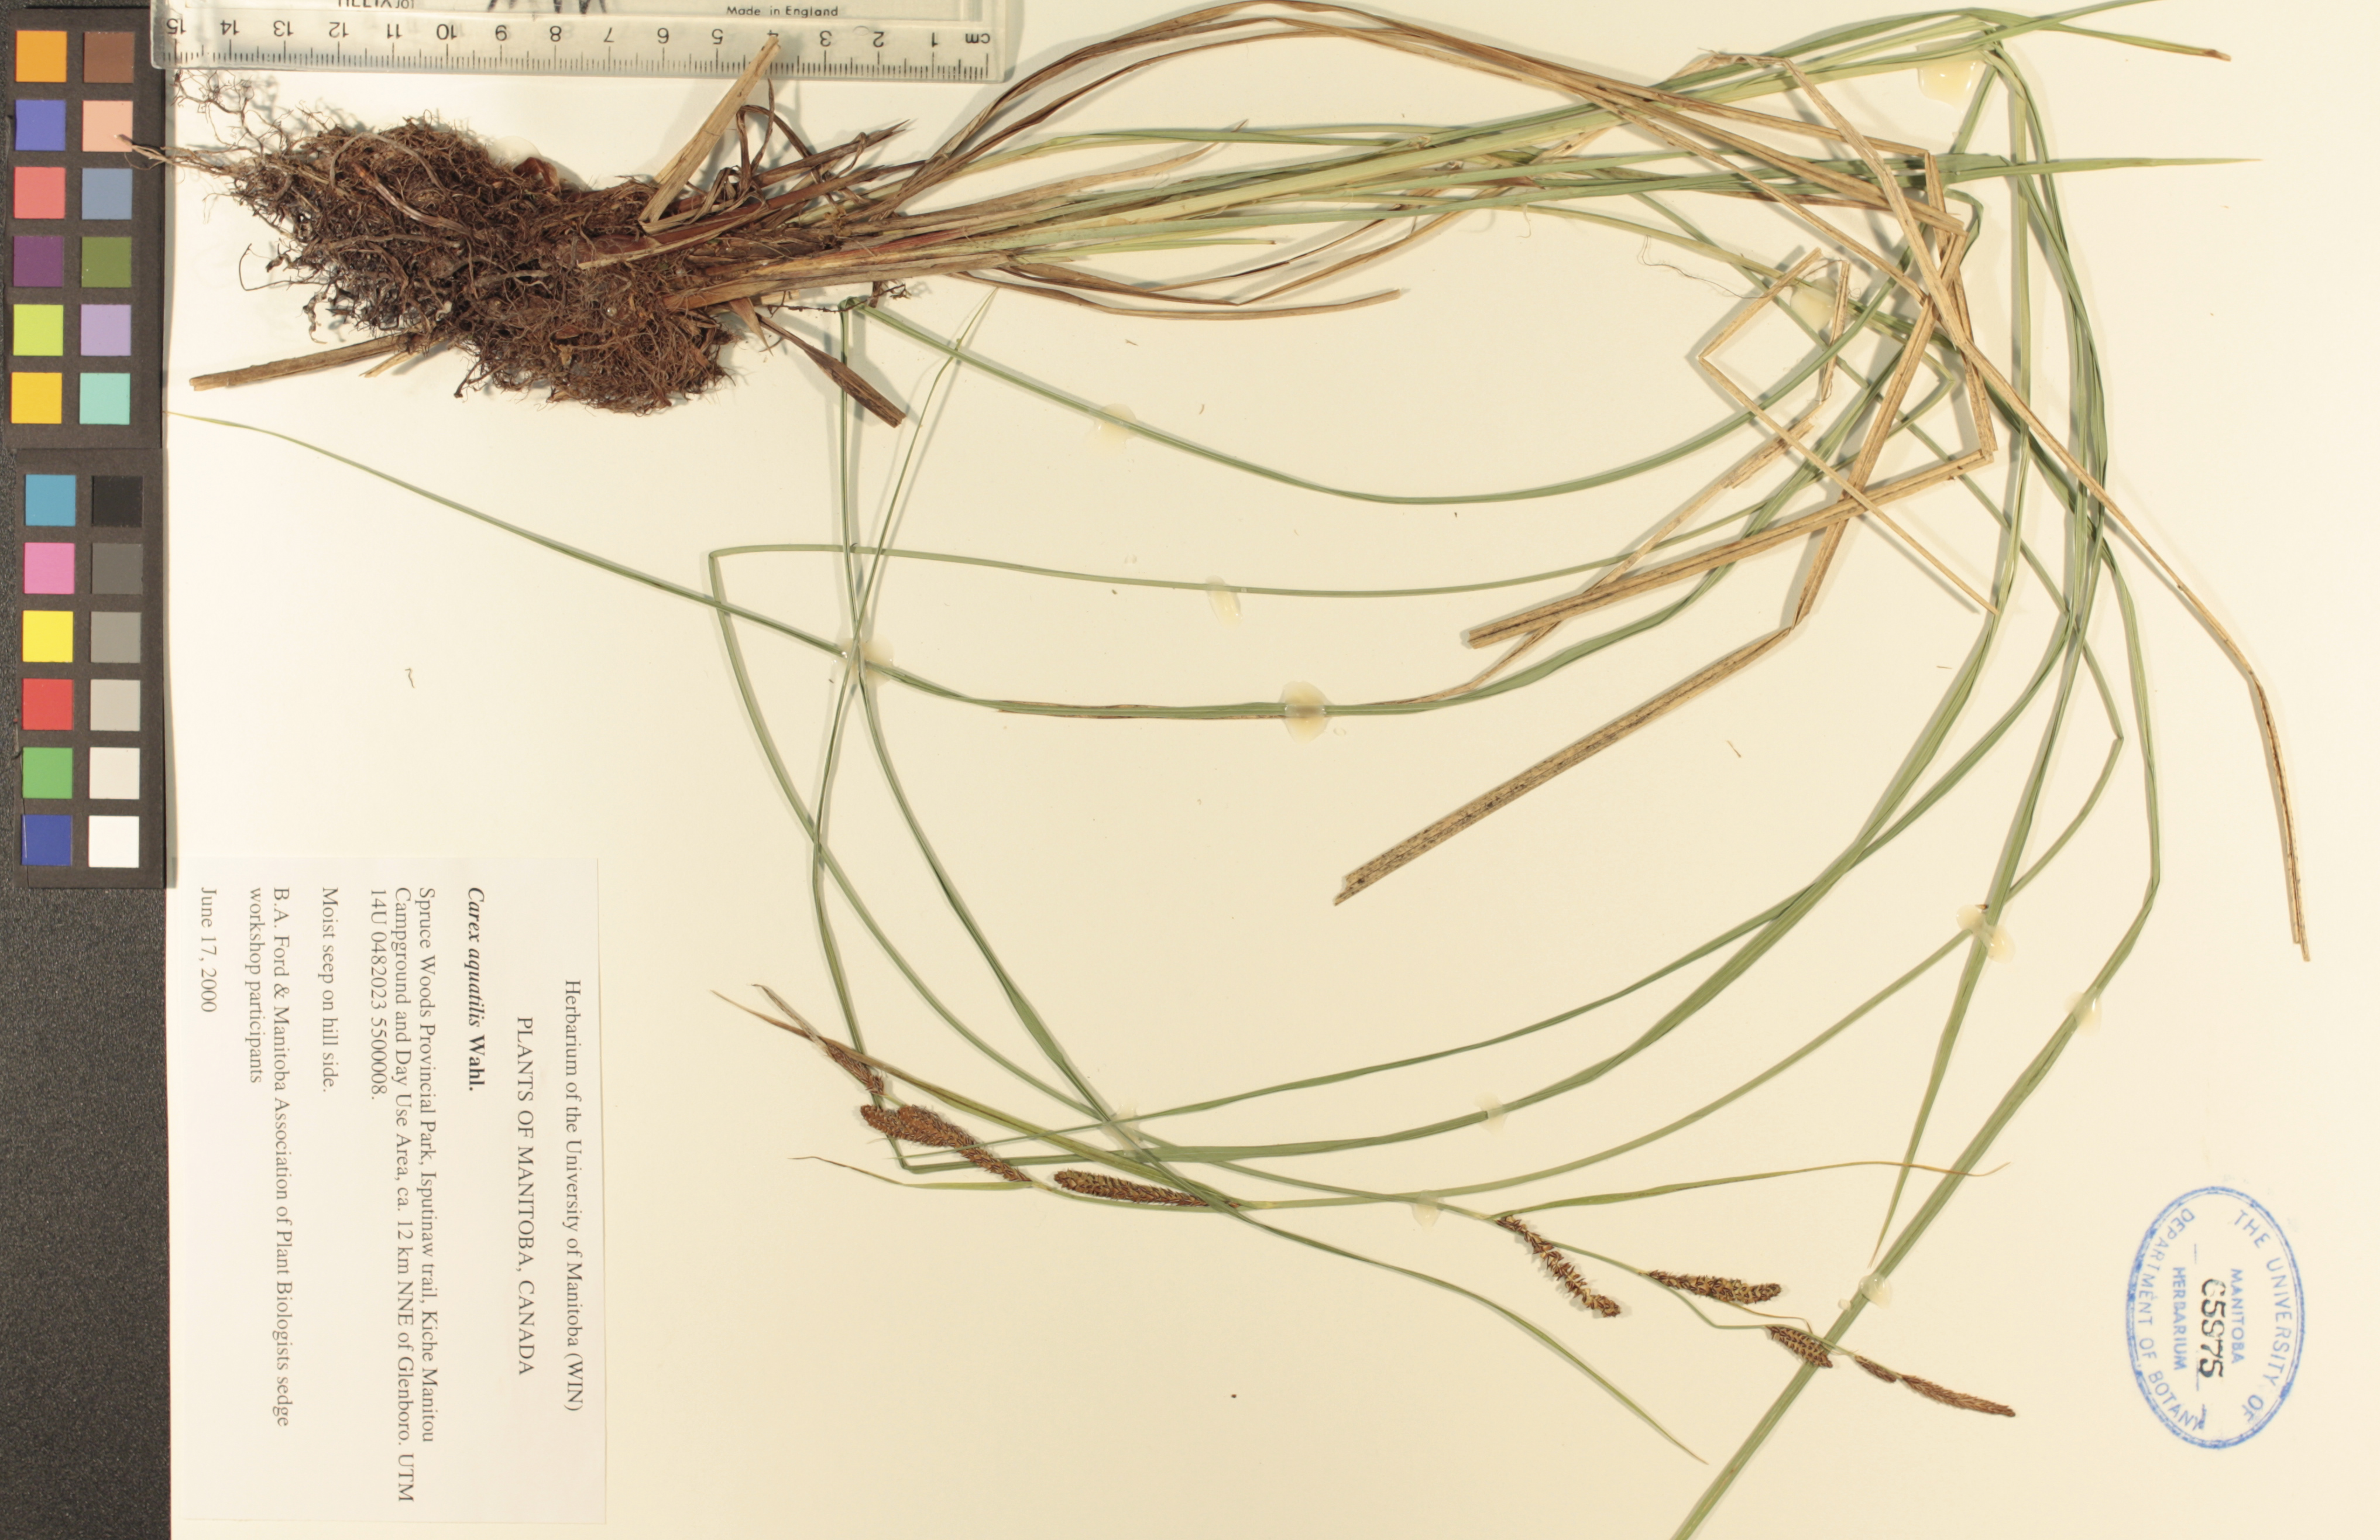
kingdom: Plantae
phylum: Tracheophyta
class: Liliopsida
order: Poales
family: Cyperaceae
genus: Carex
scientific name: Carex aquatilis
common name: Water sedge
